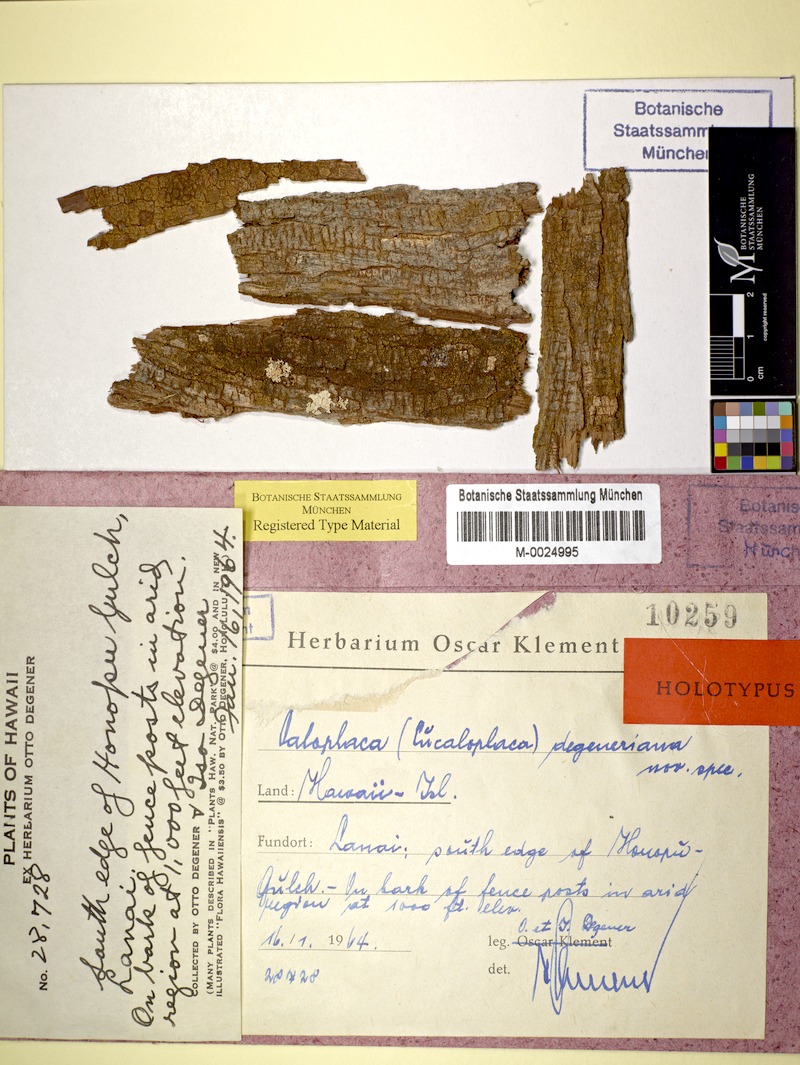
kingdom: Fungi
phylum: Ascomycota
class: Lecanoromycetes
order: Teloschistales
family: Teloschistaceae
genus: Caloplaca
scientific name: Caloplaca degeneriana
